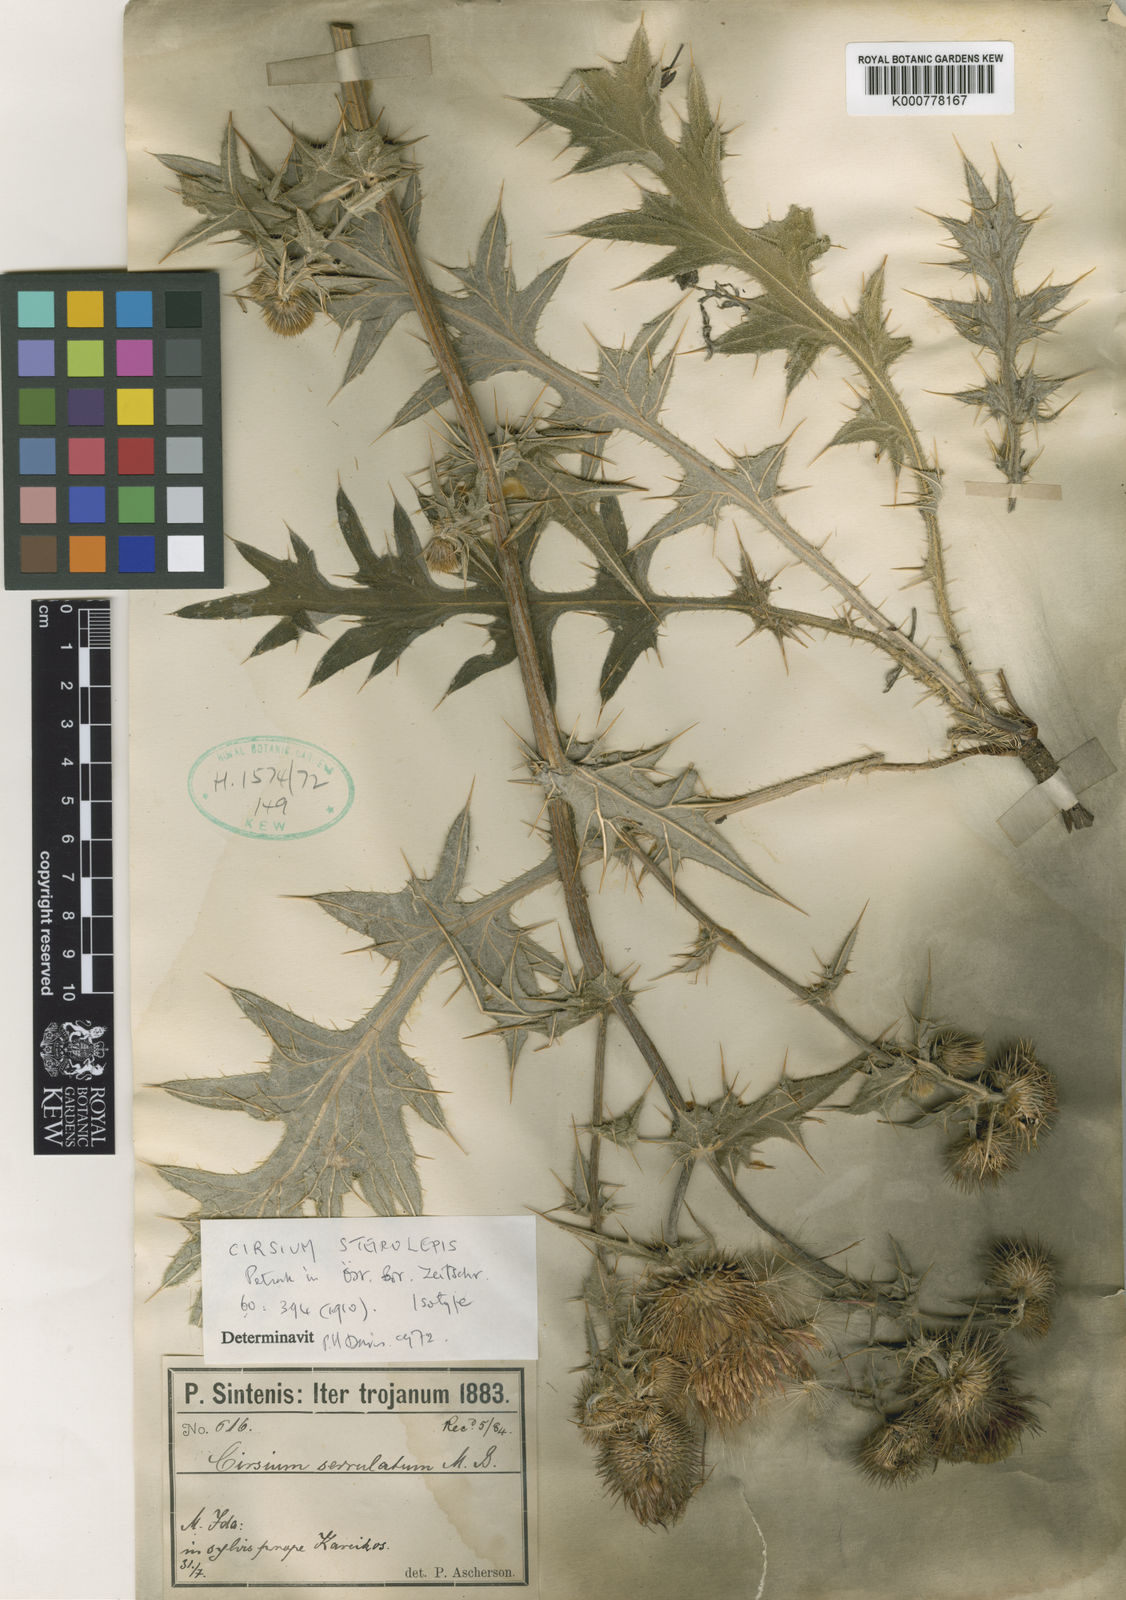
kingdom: Plantae
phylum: Tracheophyta
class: Magnoliopsida
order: Asterales
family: Asteraceae
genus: Cirsium
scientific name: Cirsium
